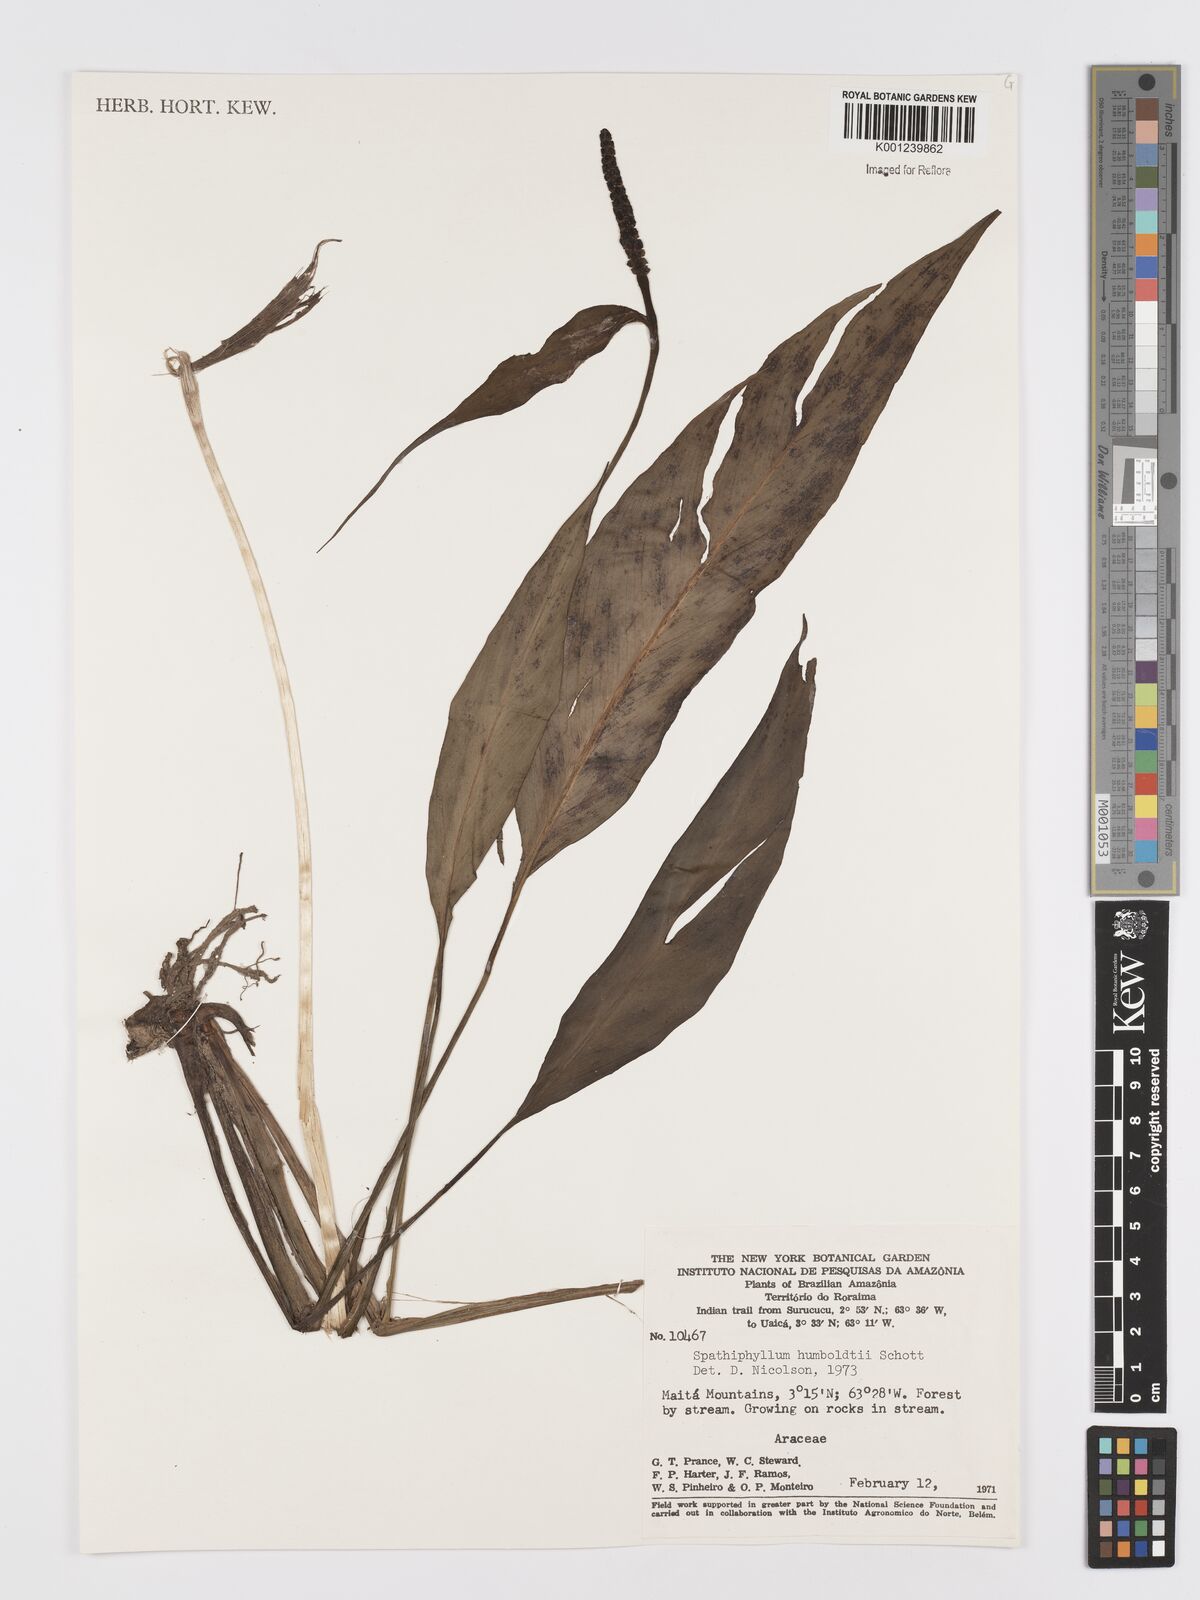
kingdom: Plantae
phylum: Tracheophyta
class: Liliopsida
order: Alismatales
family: Araceae
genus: Spathiphyllum
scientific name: Spathiphyllum humboldtii
